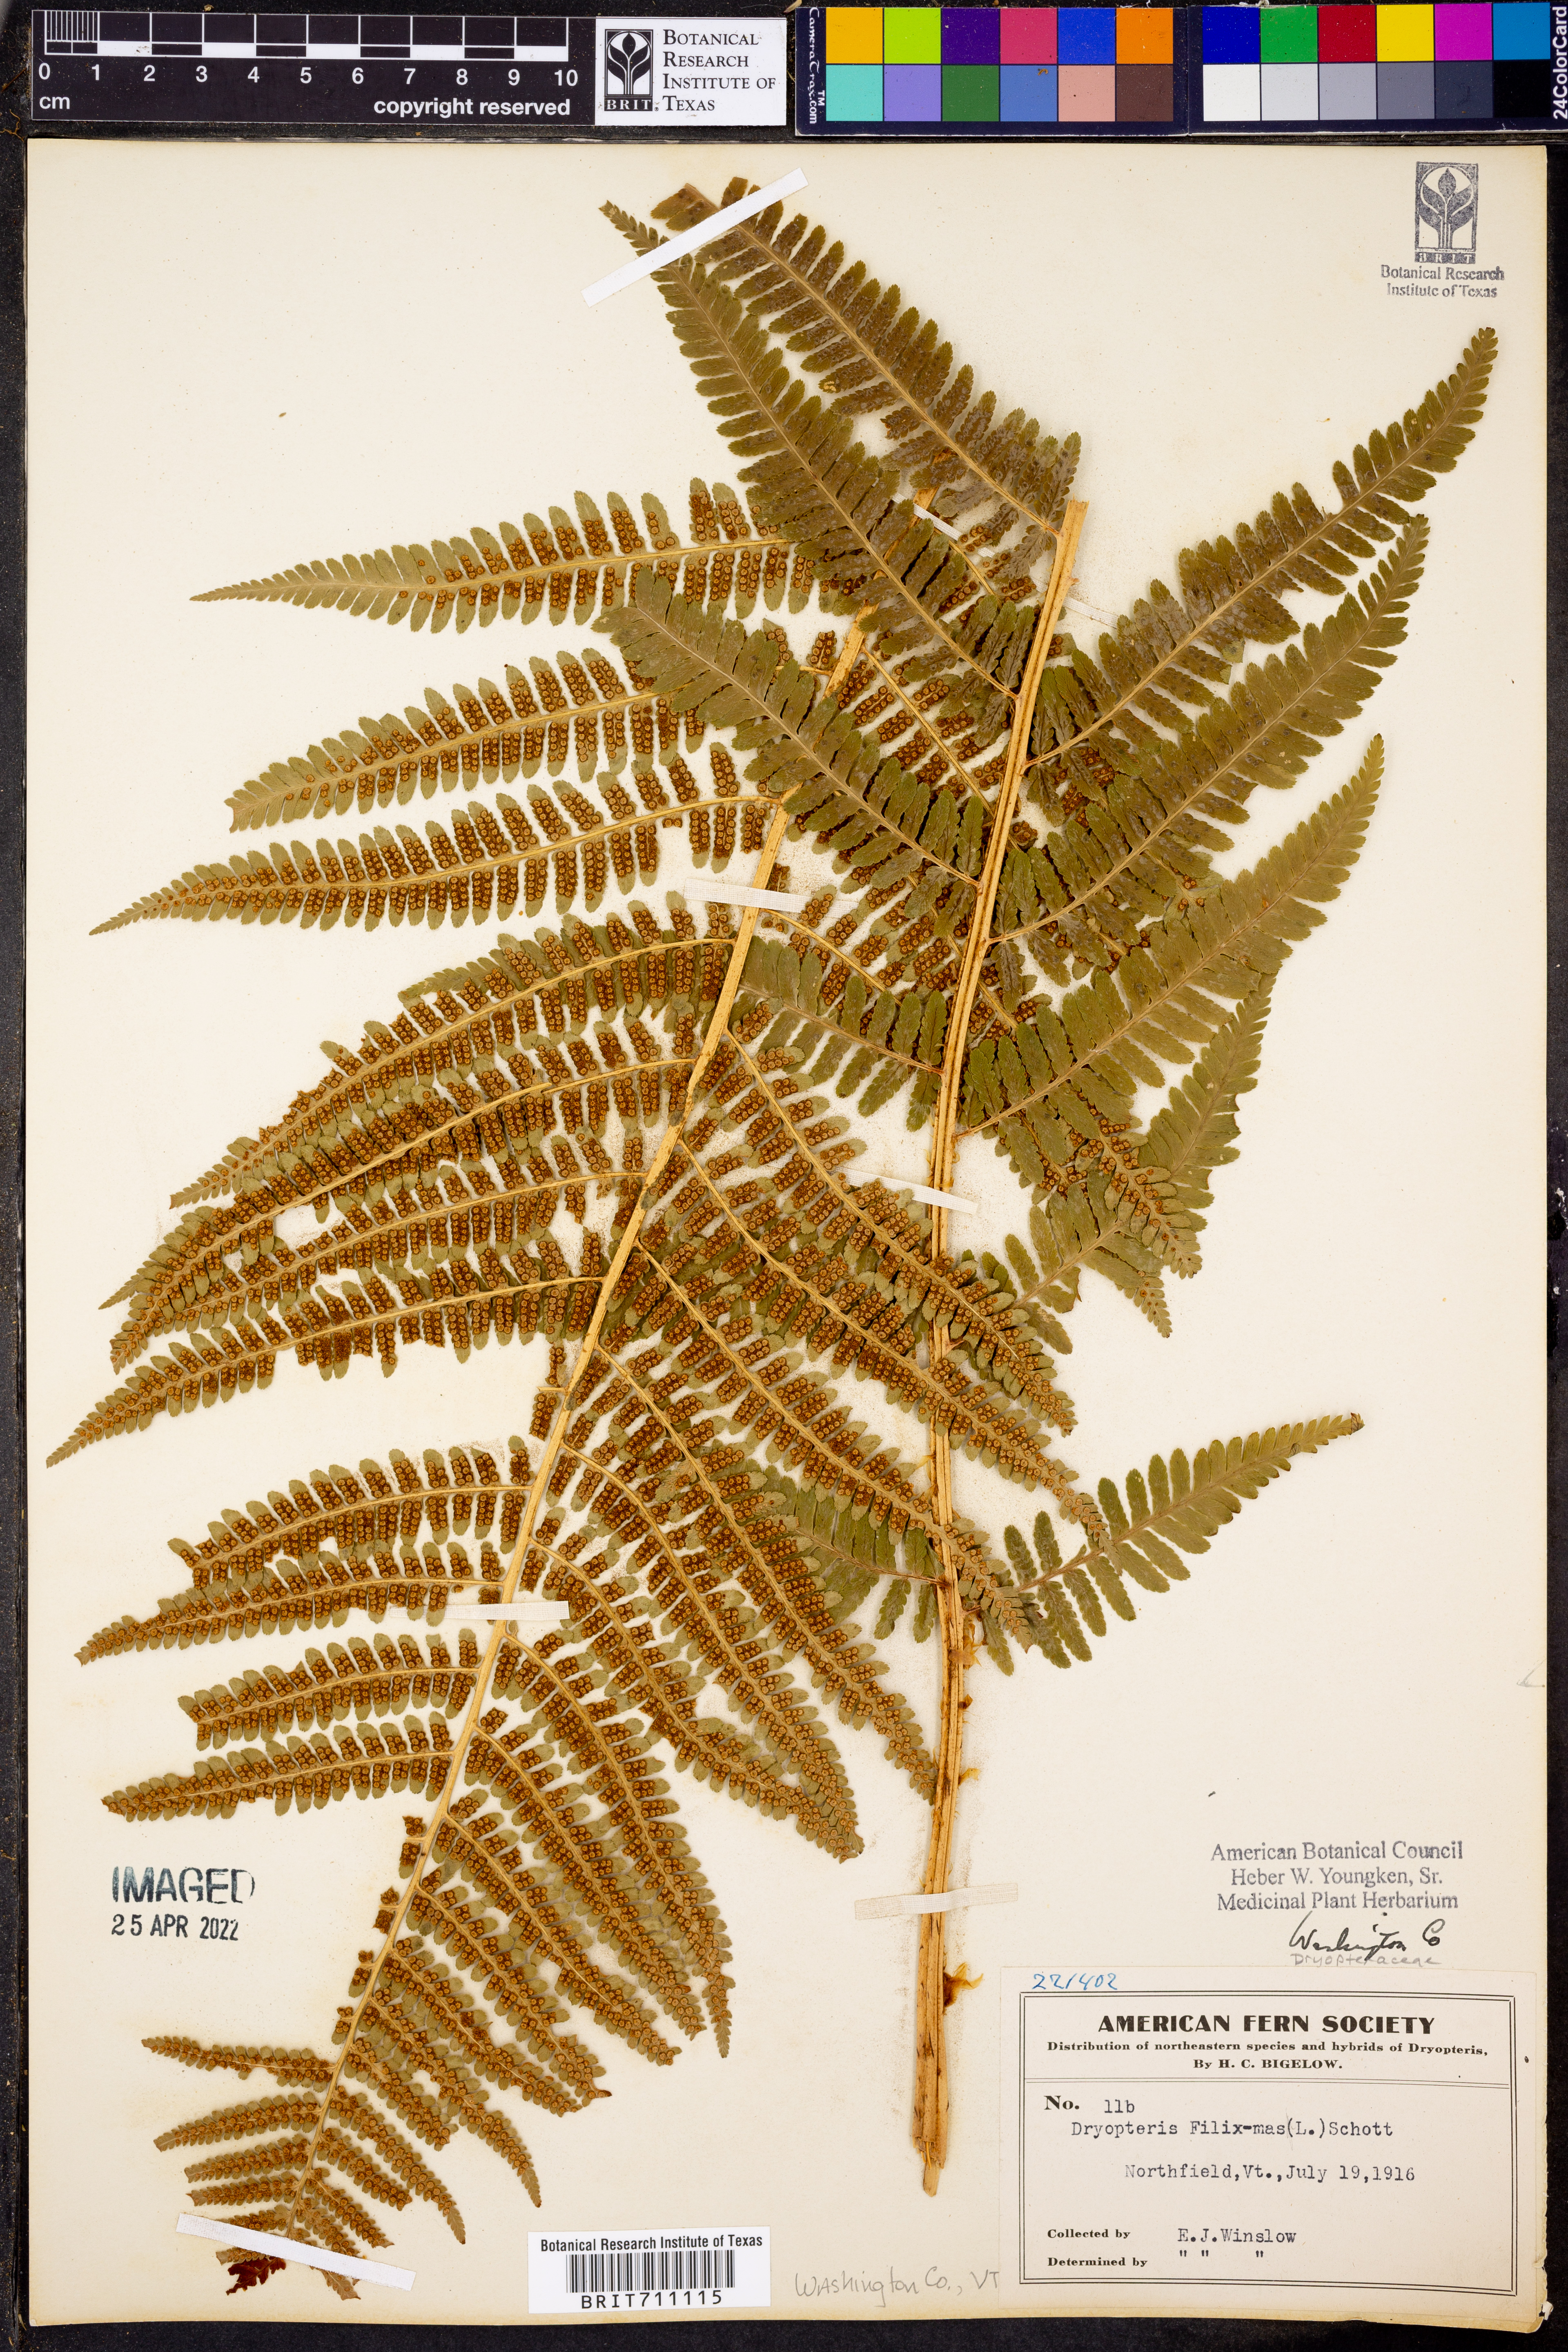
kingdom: Plantae
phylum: Tracheophyta
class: Polypodiopsida
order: Polypodiales
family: Dryopteridaceae
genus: Dryopteris
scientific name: Dryopteris filix-mas
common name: Male fern
